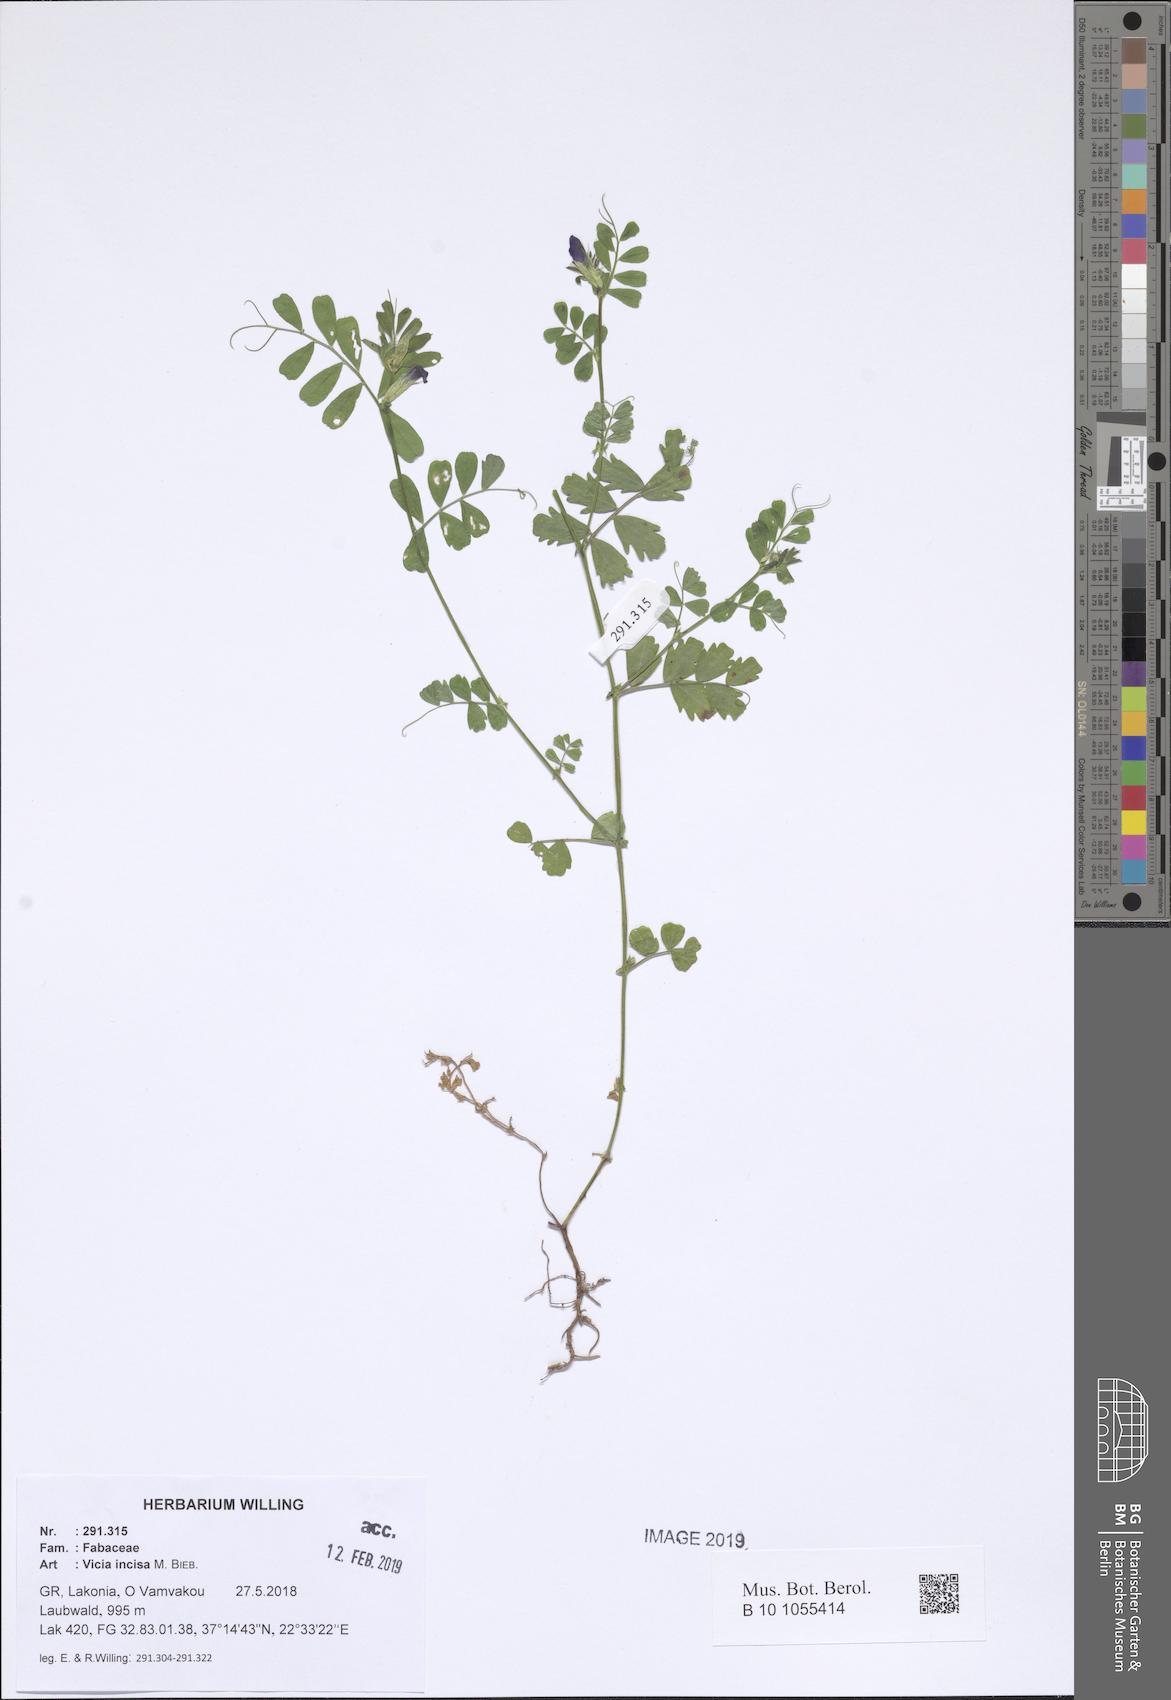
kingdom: Plantae
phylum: Tracheophyta
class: Magnoliopsida
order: Fabales
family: Fabaceae
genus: Vicia
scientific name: Vicia sativa
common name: Garden vetch
